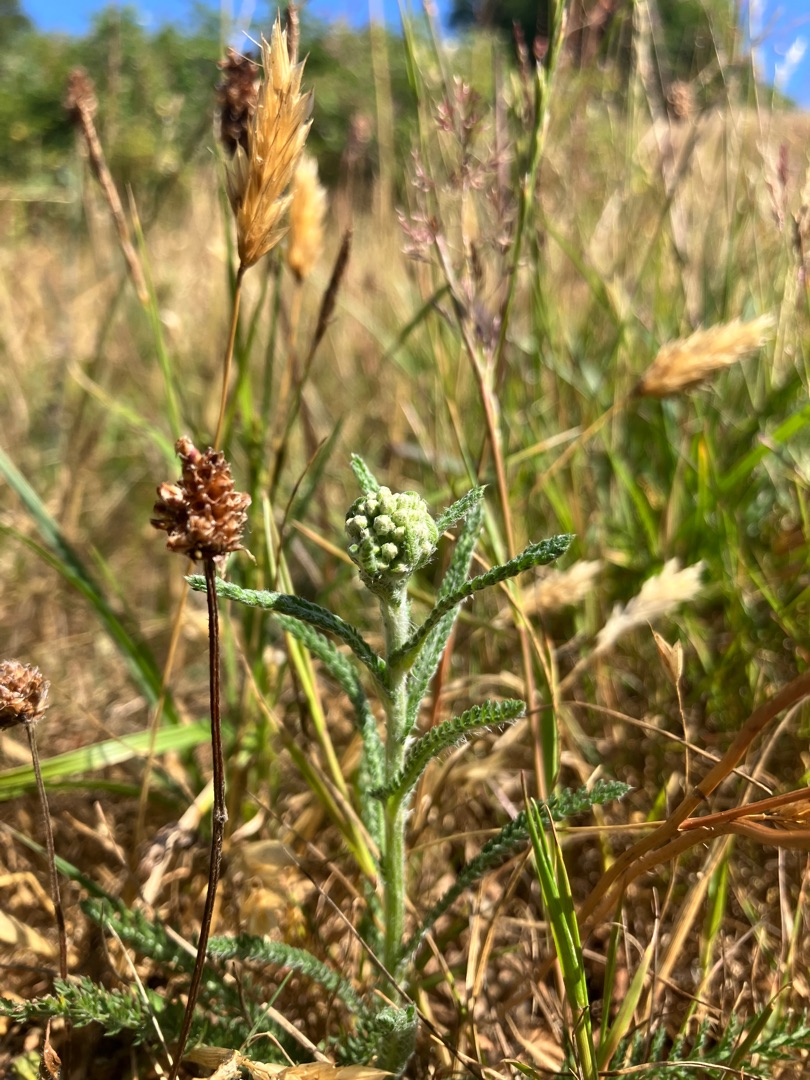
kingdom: Plantae
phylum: Tracheophyta
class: Magnoliopsida
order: Asterales
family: Asteraceae
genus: Achillea
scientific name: Achillea millefolium
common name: Almindelig røllike
